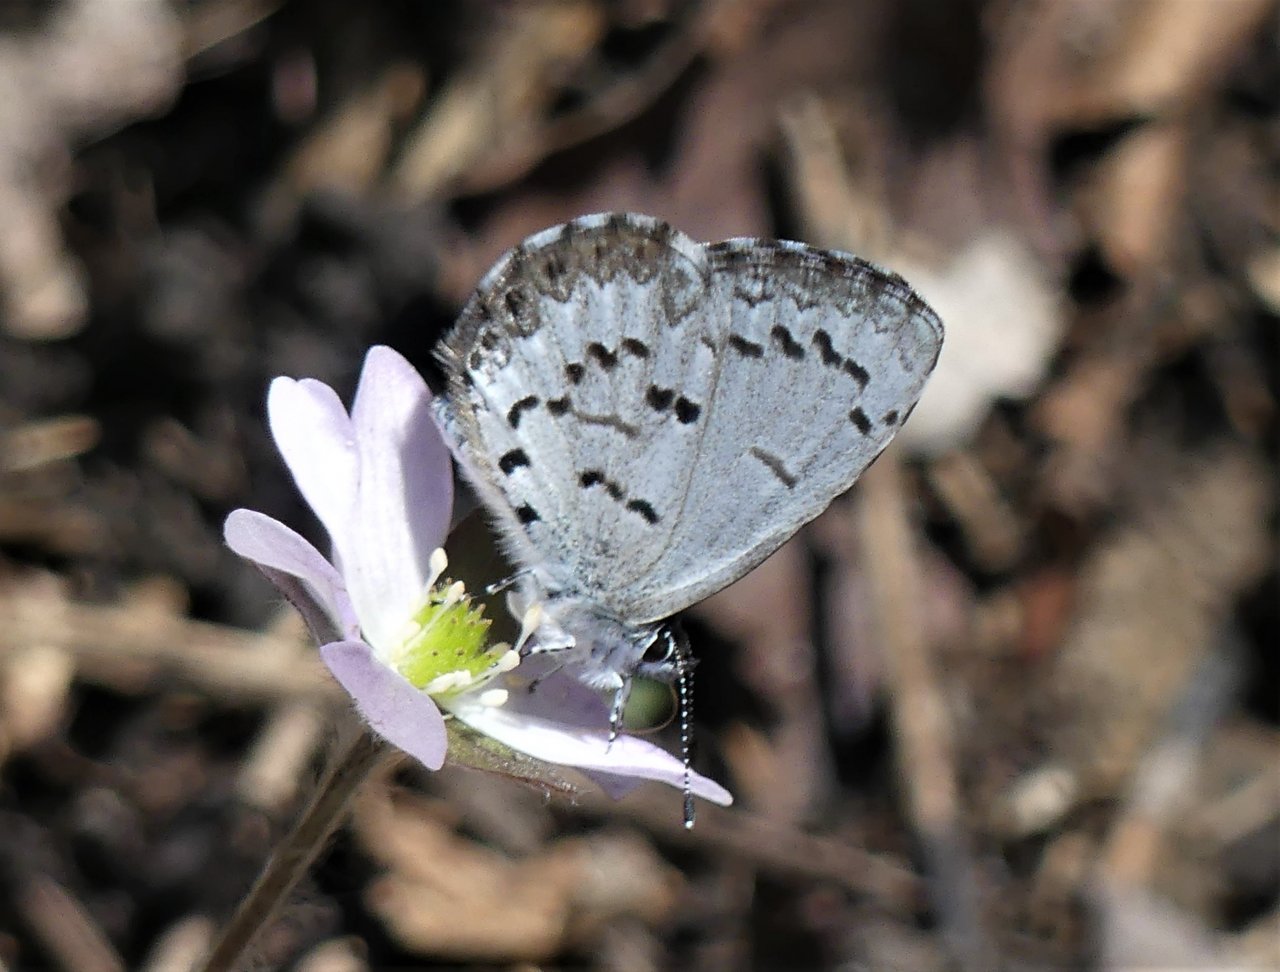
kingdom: Animalia
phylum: Arthropoda
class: Insecta
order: Lepidoptera
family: Lycaenidae
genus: Celastrina
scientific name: Celastrina lucia
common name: Northern Spring Azure
